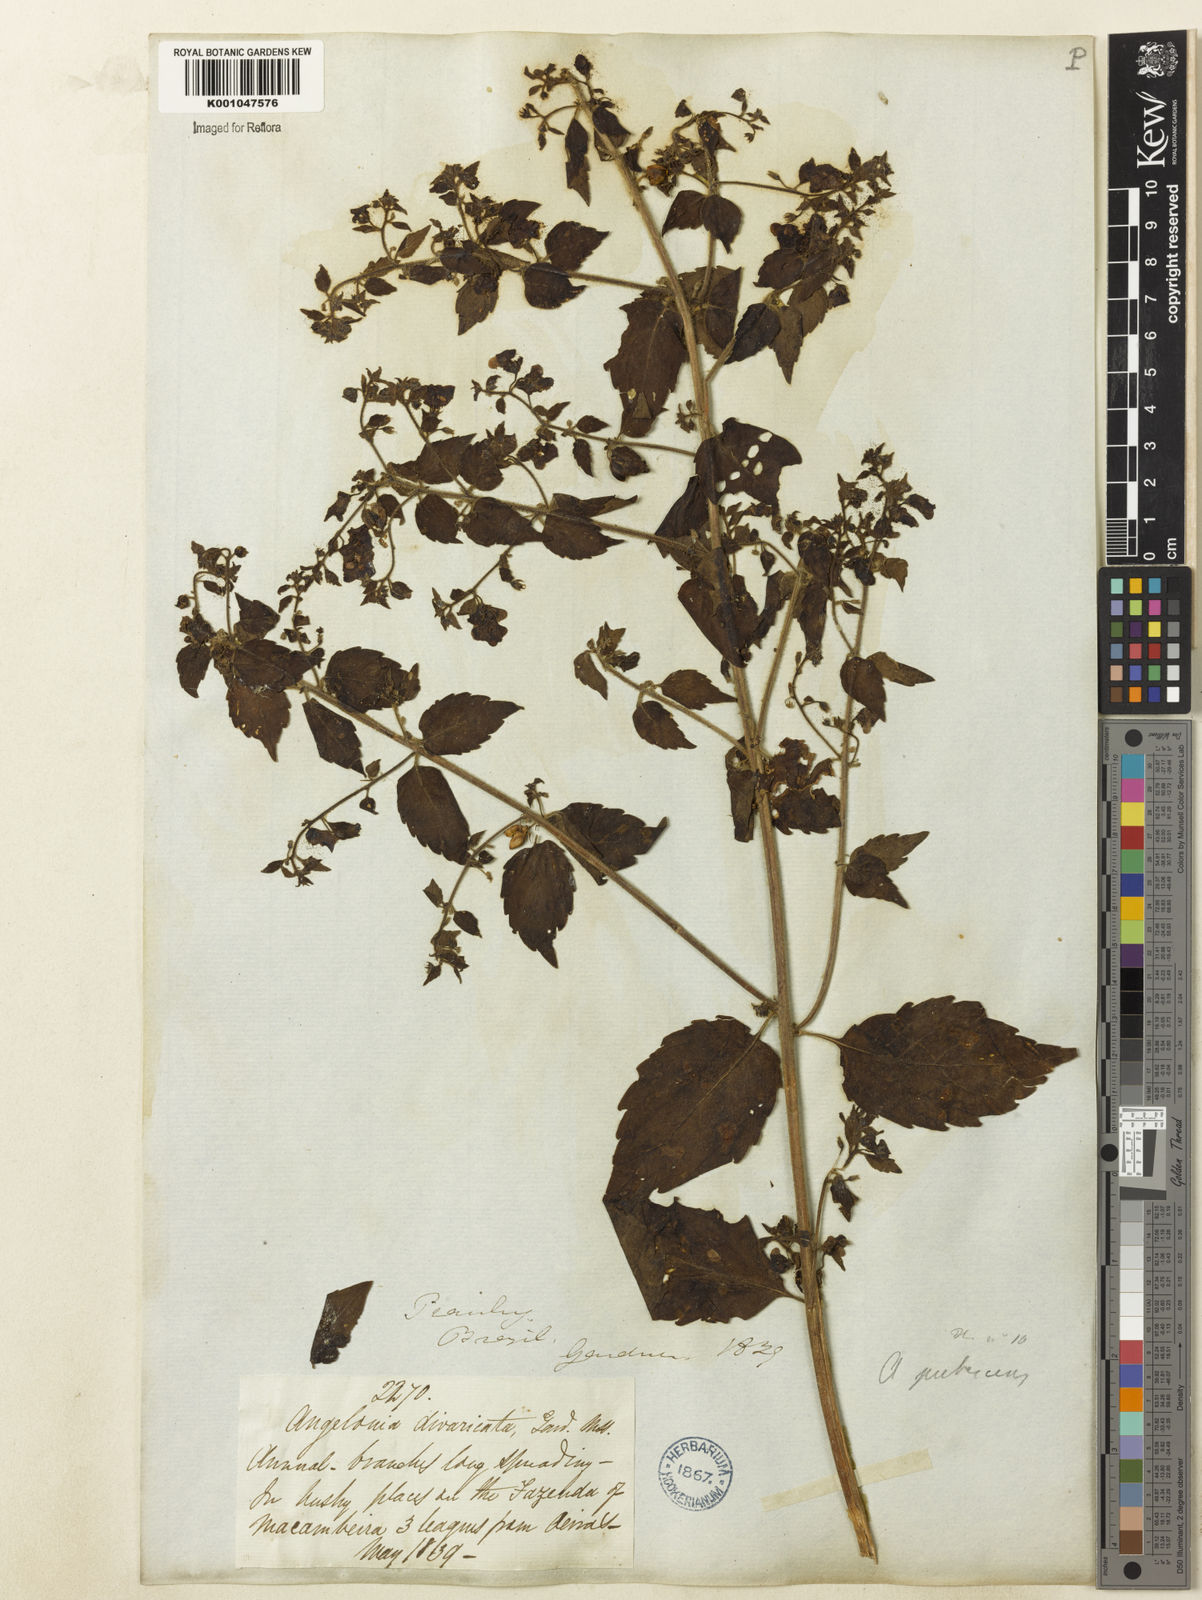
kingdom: Plantae
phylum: Tracheophyta
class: Magnoliopsida
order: Lamiales
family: Plantaginaceae
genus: Angelonia
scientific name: Angelonia pubescens
